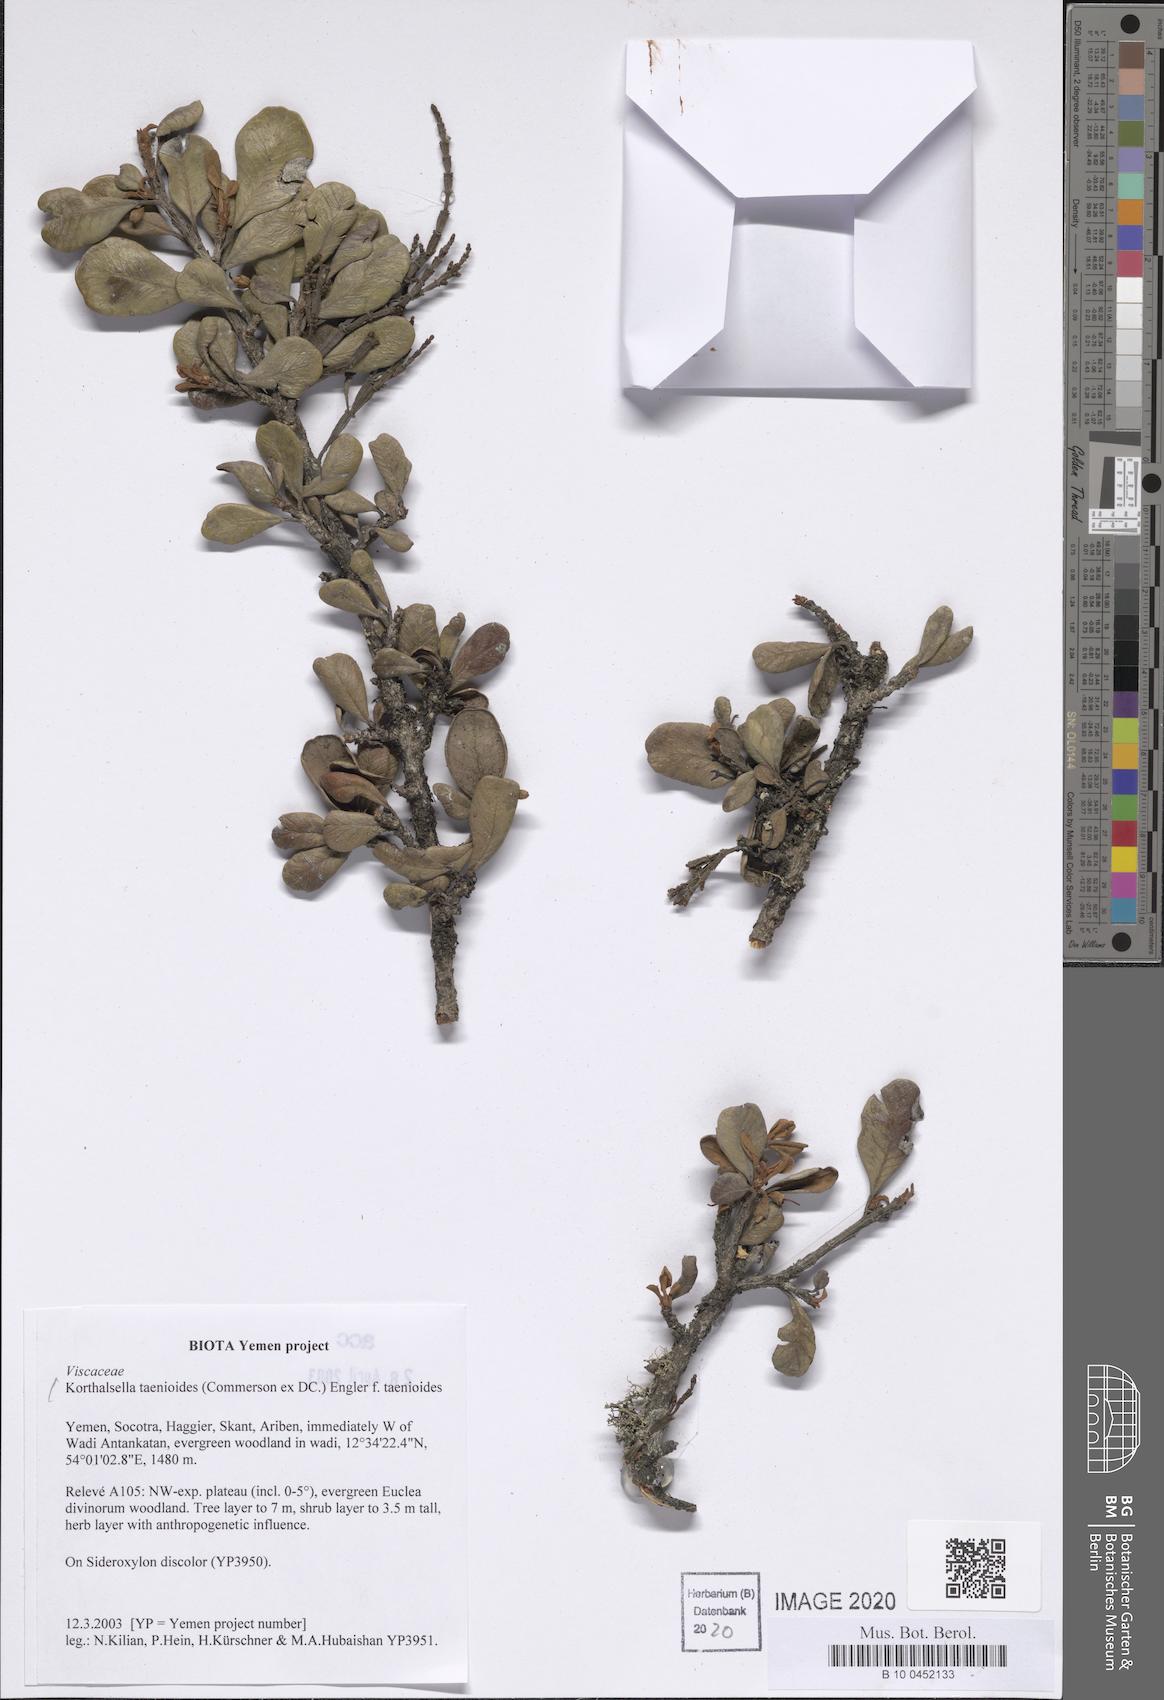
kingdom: Plantae
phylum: Tracheophyta
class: Magnoliopsida
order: Santalales
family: Viscaceae
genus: Korthalsella
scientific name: Korthalsella taenioides
